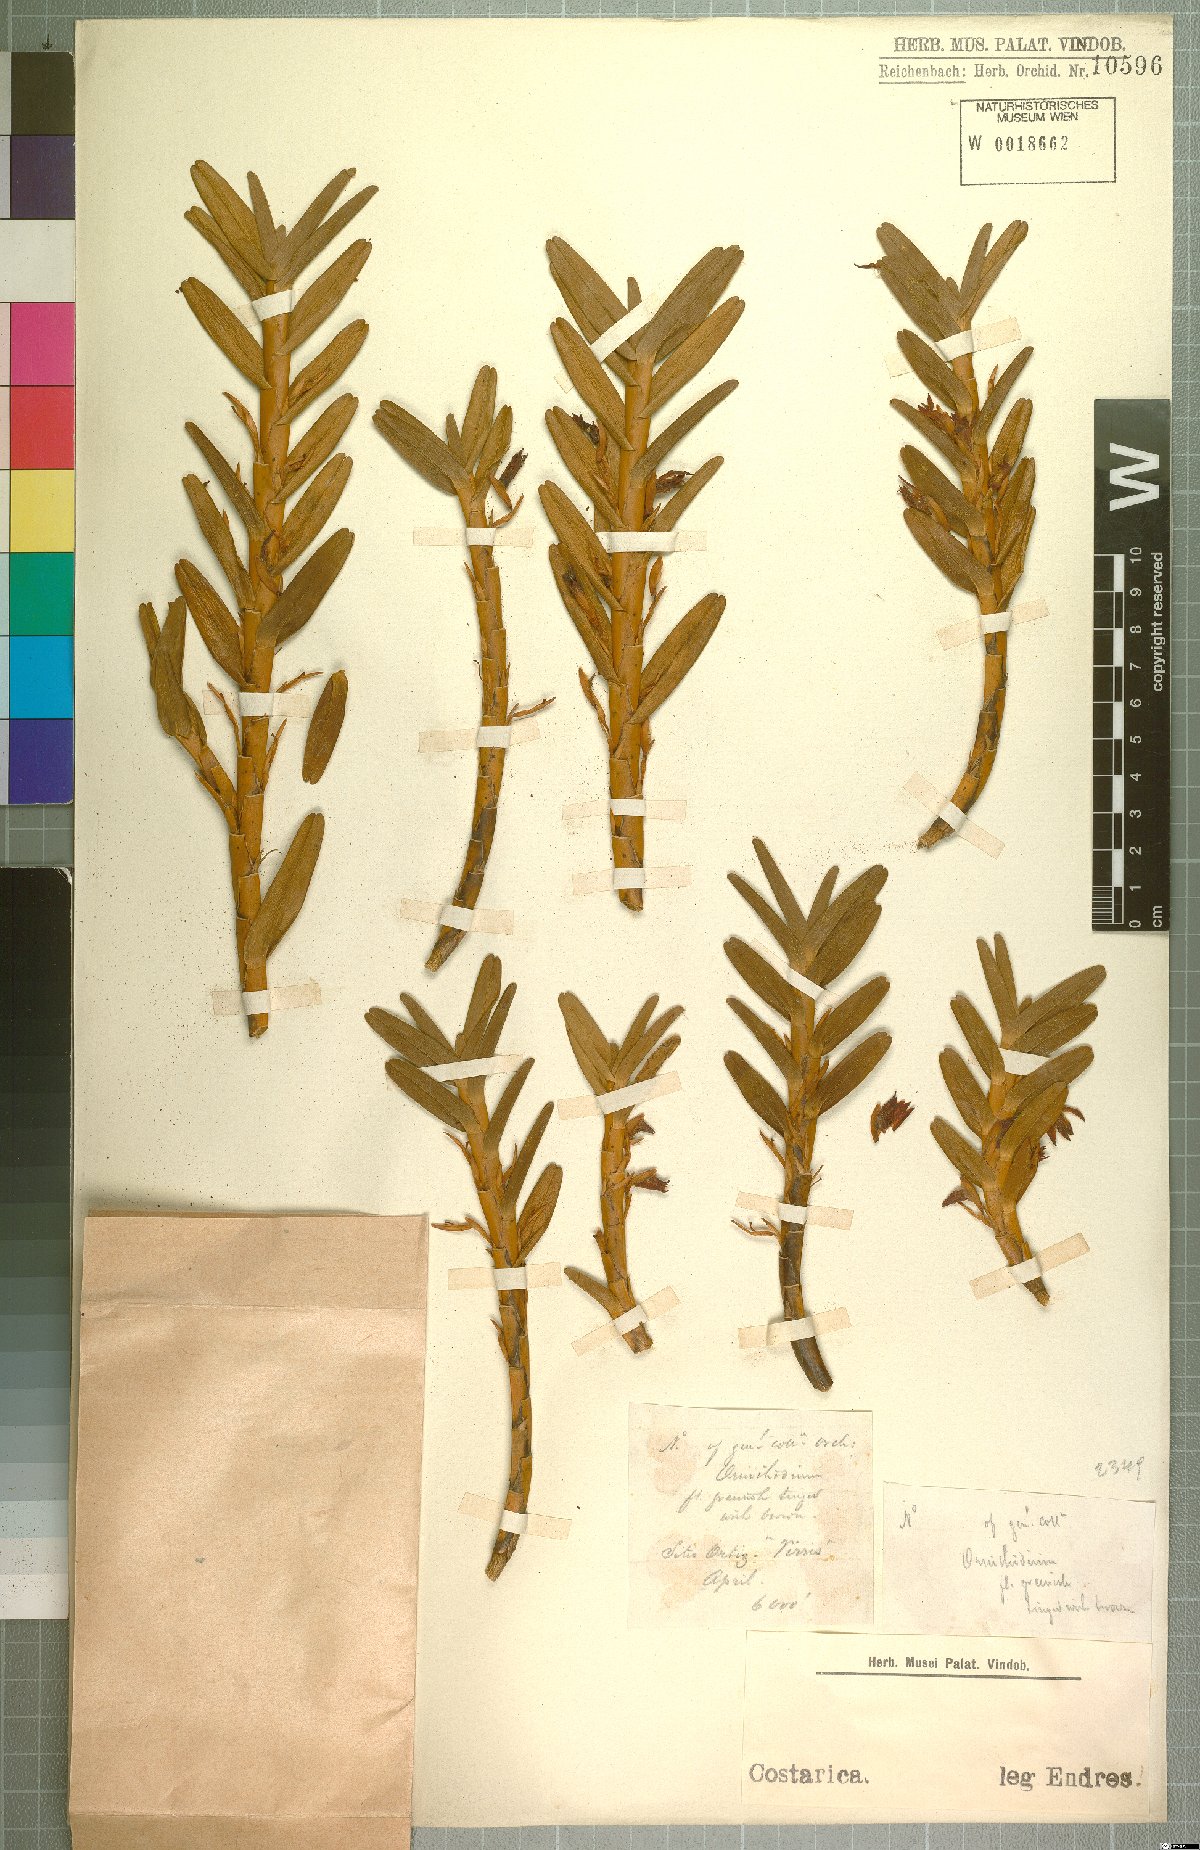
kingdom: Plantae
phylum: Tracheophyta
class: Liliopsida
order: Asparagales
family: Orchidaceae
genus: Maxillaria
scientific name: Maxillaria
